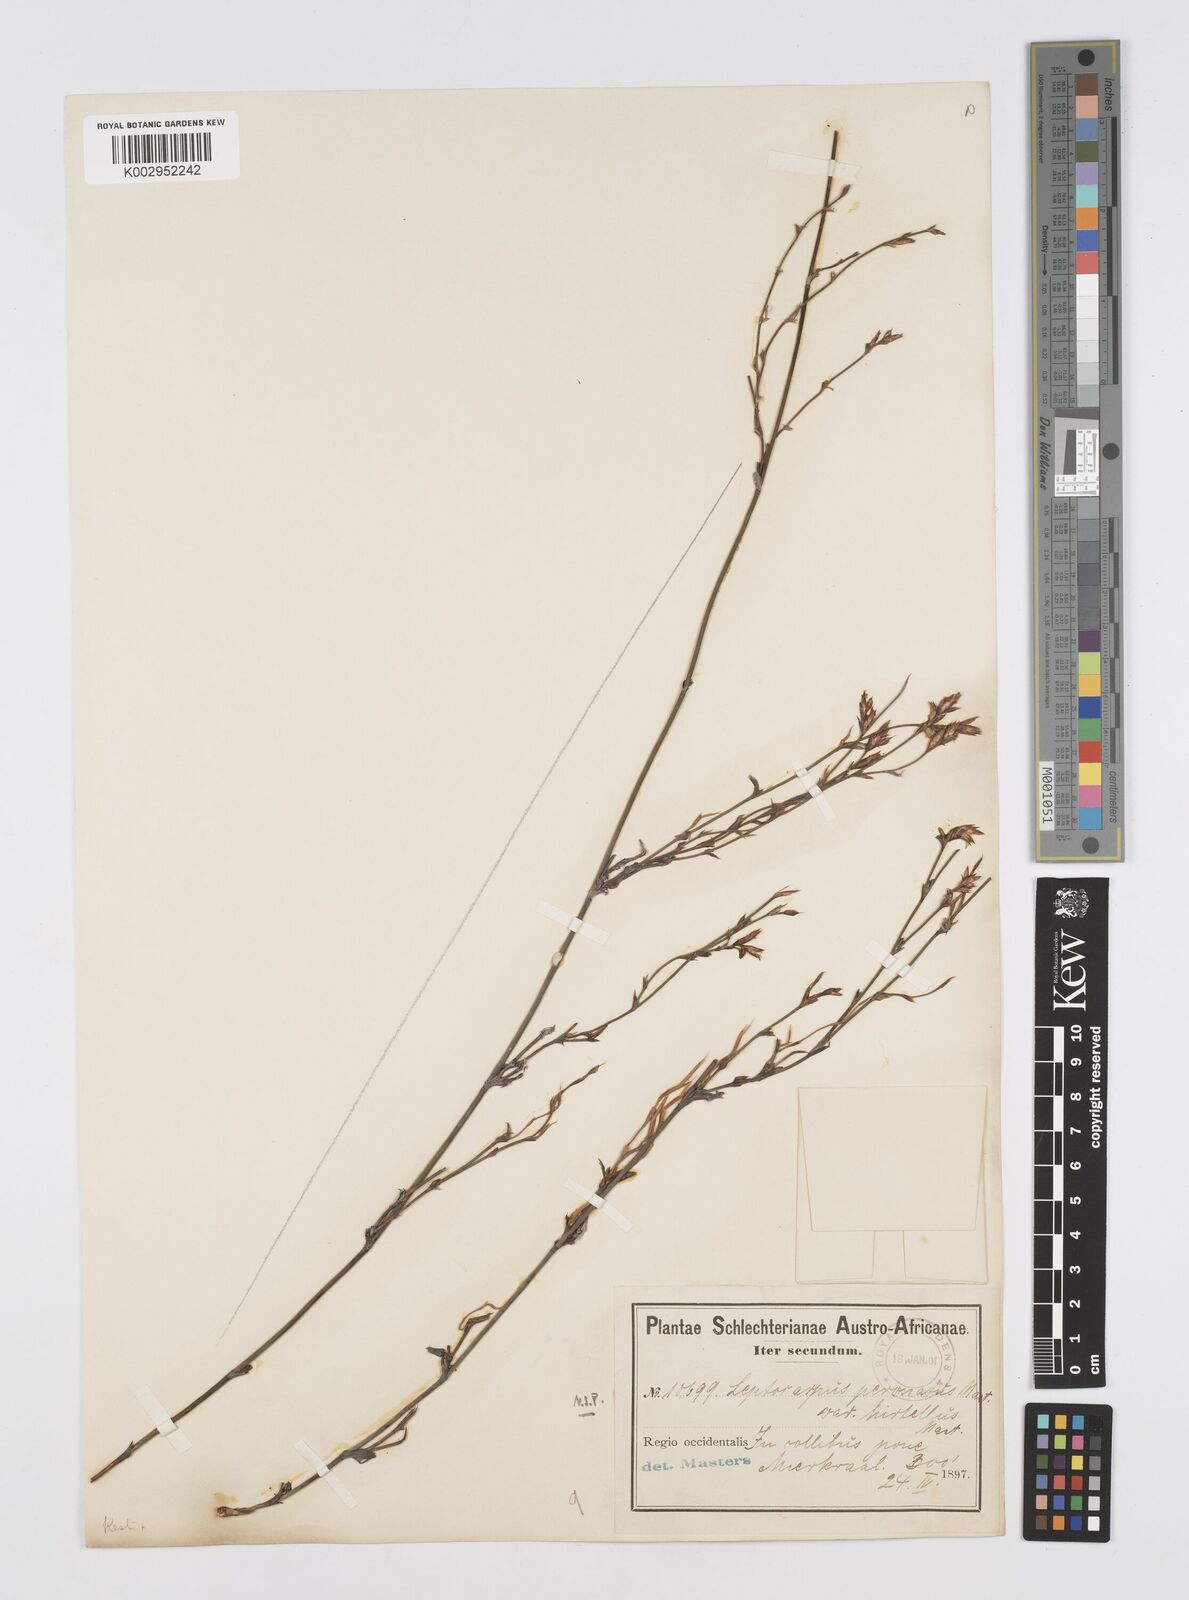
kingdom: Plantae
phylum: Tracheophyta
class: Liliopsida
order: Poales
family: Restionaceae
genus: Restio
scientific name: Restio vimineus
